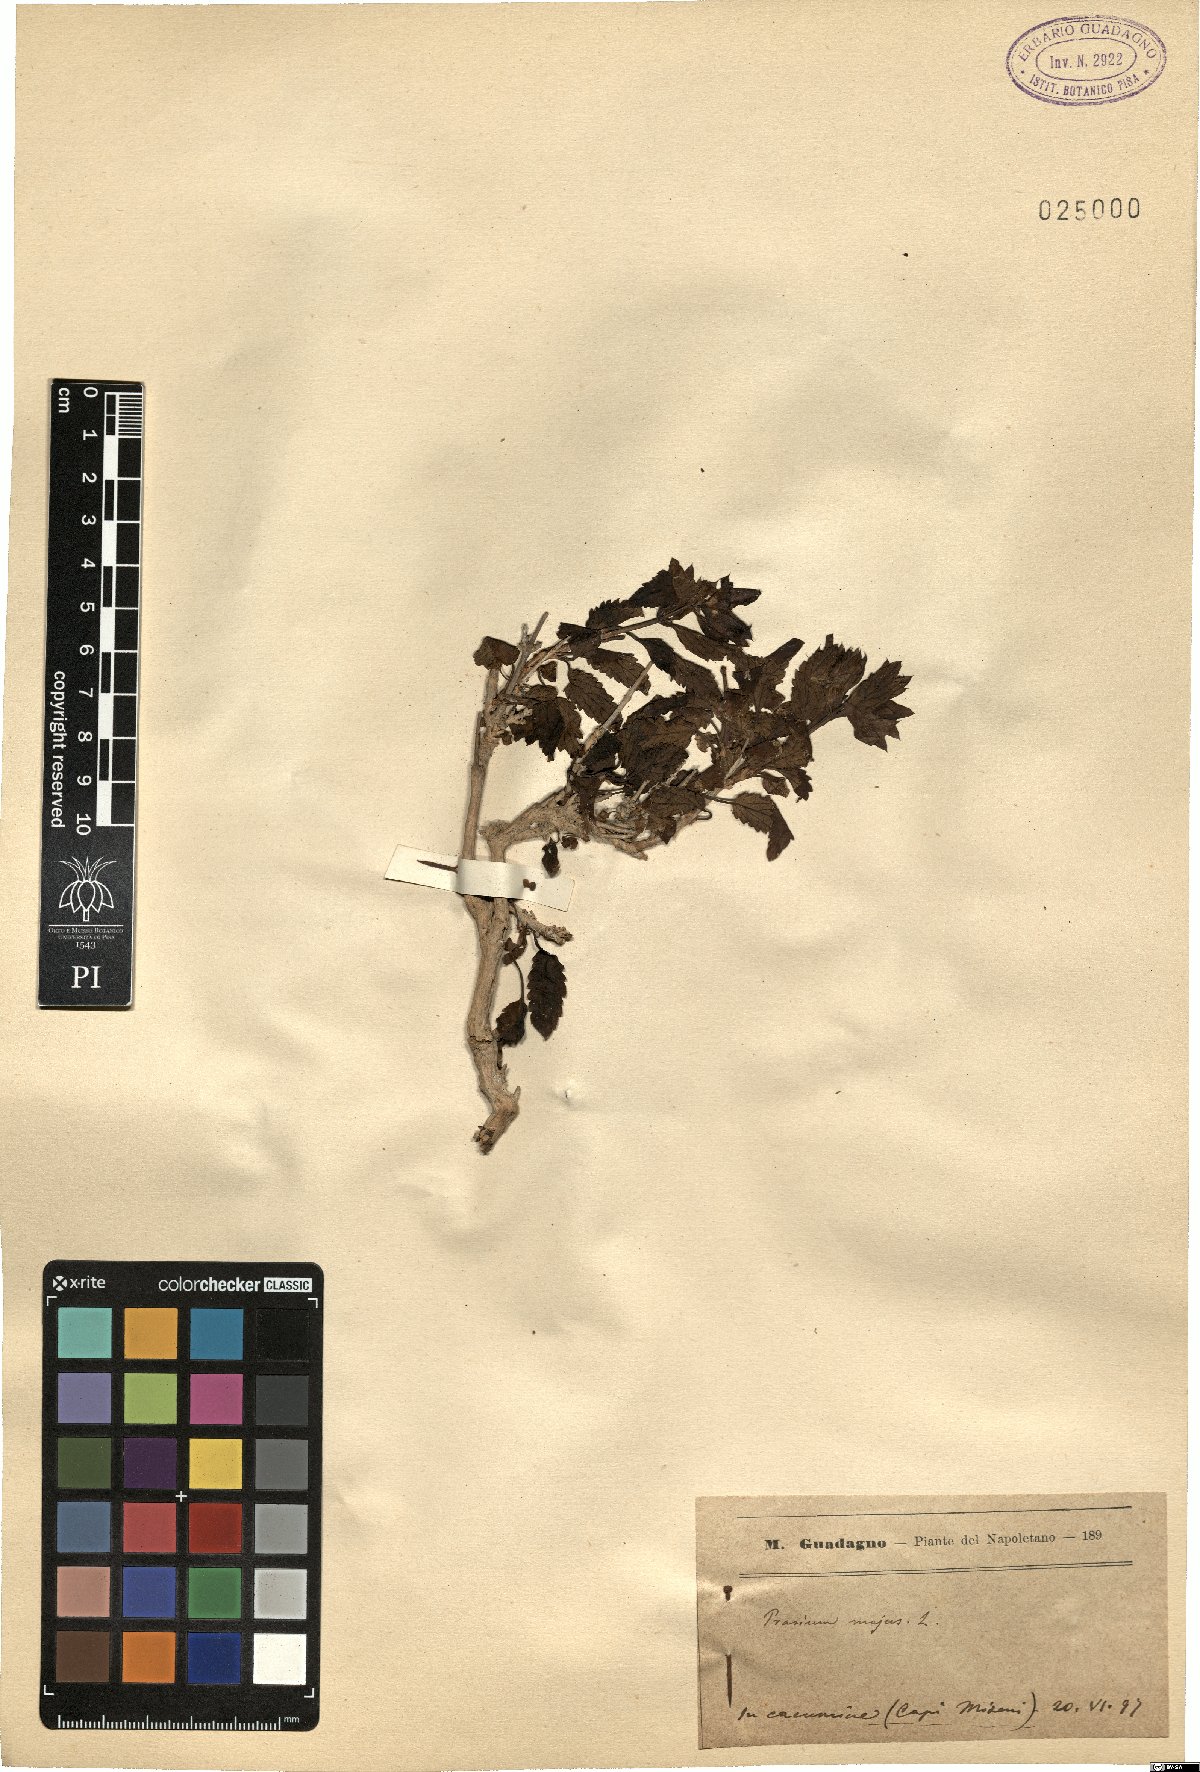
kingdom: Plantae
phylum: Tracheophyta
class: Magnoliopsida
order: Lamiales
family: Lamiaceae
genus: Prasium
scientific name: Prasium majus
